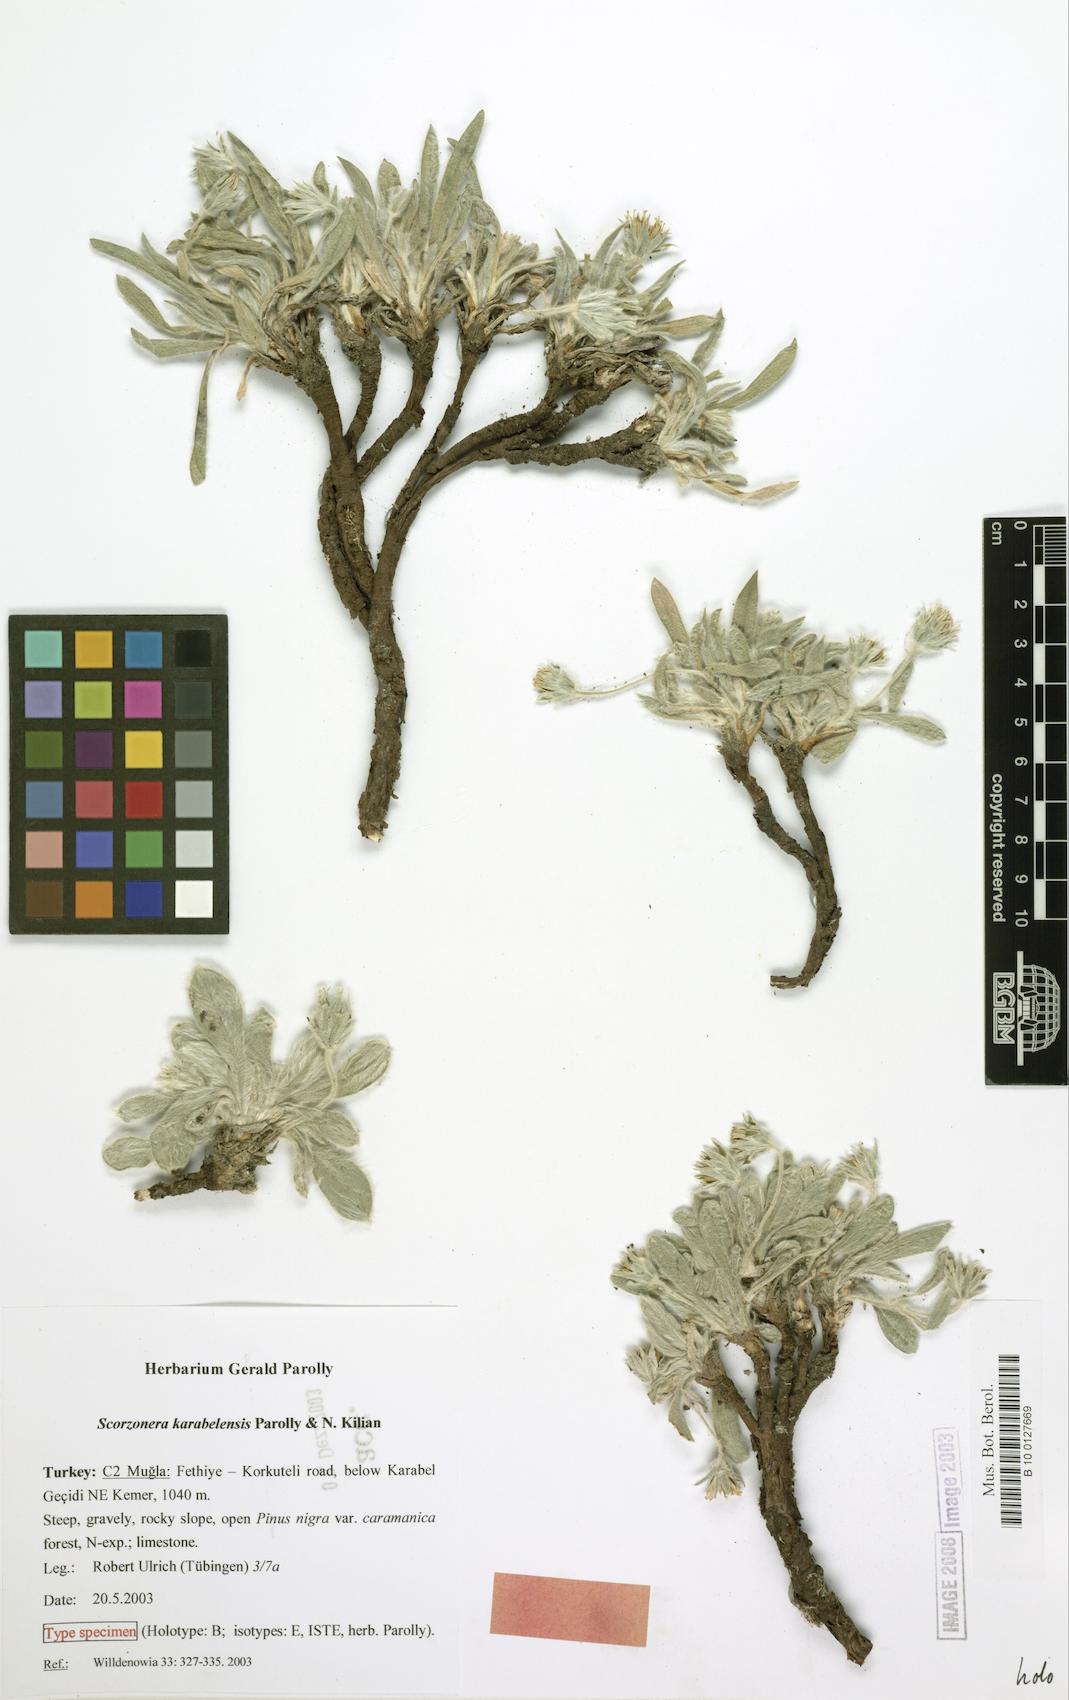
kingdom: Plantae
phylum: Tracheophyta
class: Magnoliopsida
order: Asterales
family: Asteraceae
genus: Bilgea
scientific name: Bilgea karabelensis
